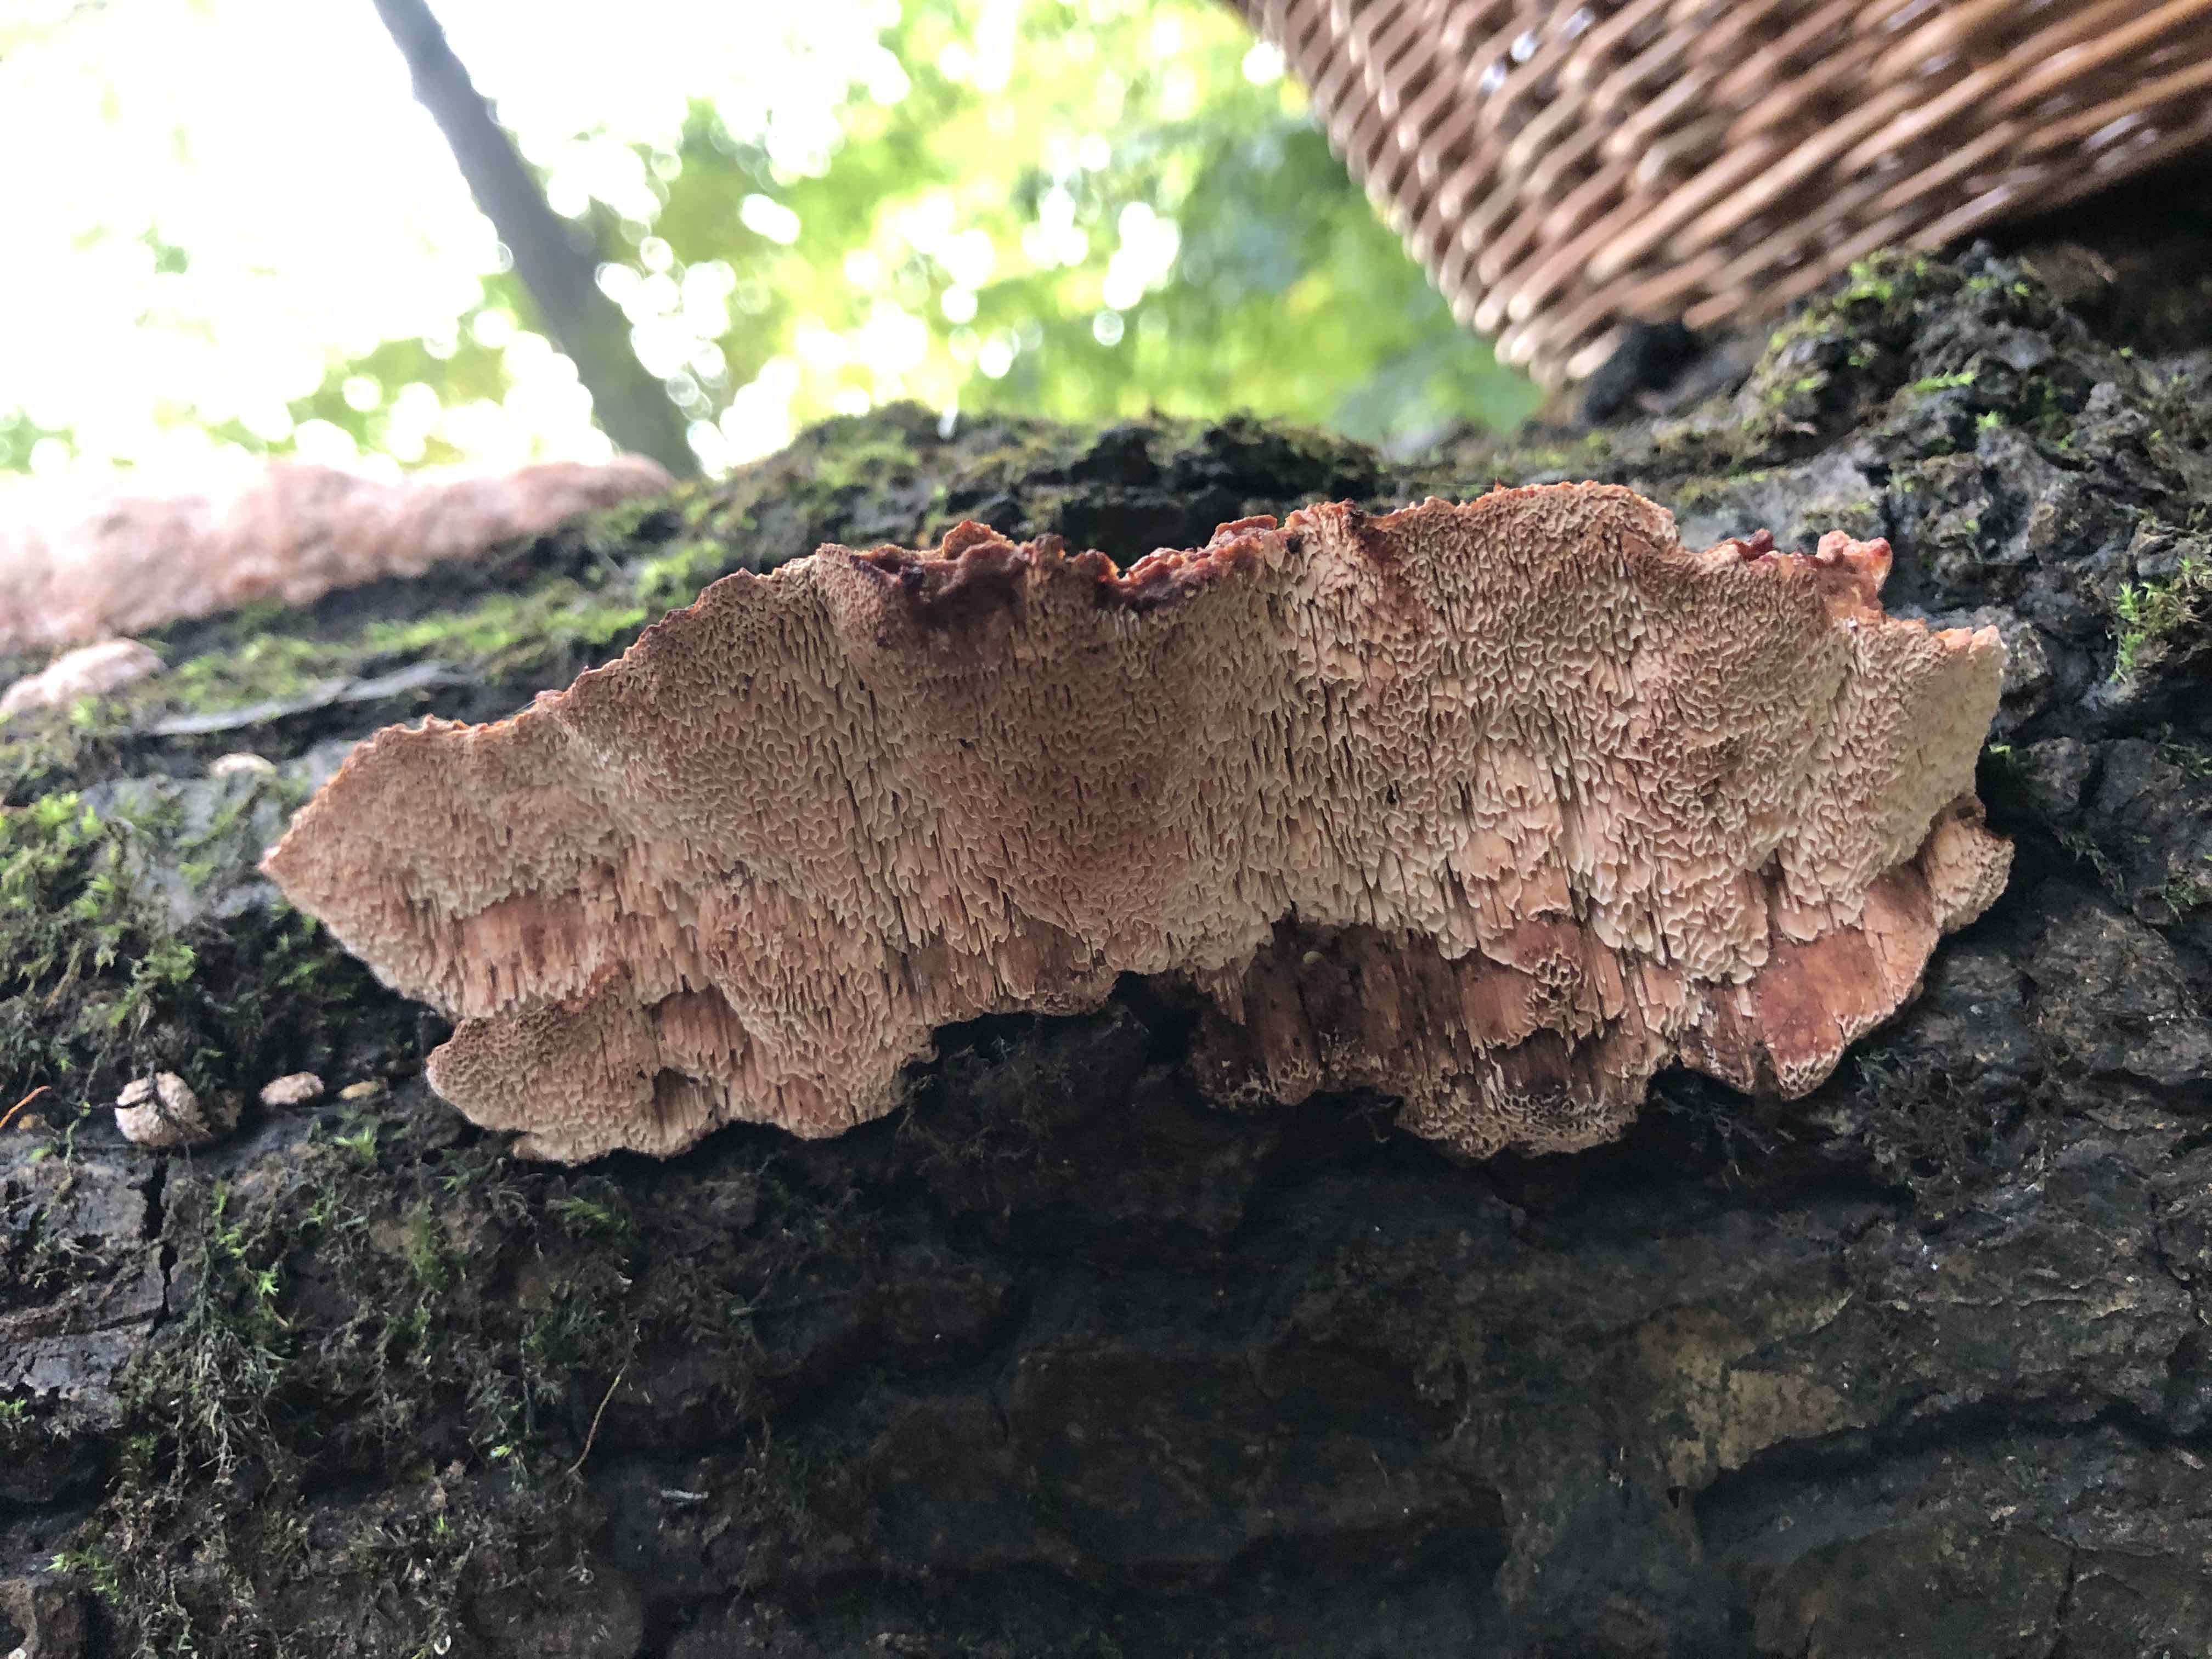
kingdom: Fungi
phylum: Basidiomycota
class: Agaricomycetes
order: Polyporales
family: Podoscyphaceae
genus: Abortiporus
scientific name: Abortiporus biennis
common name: rødmende pjalteporesvamp
